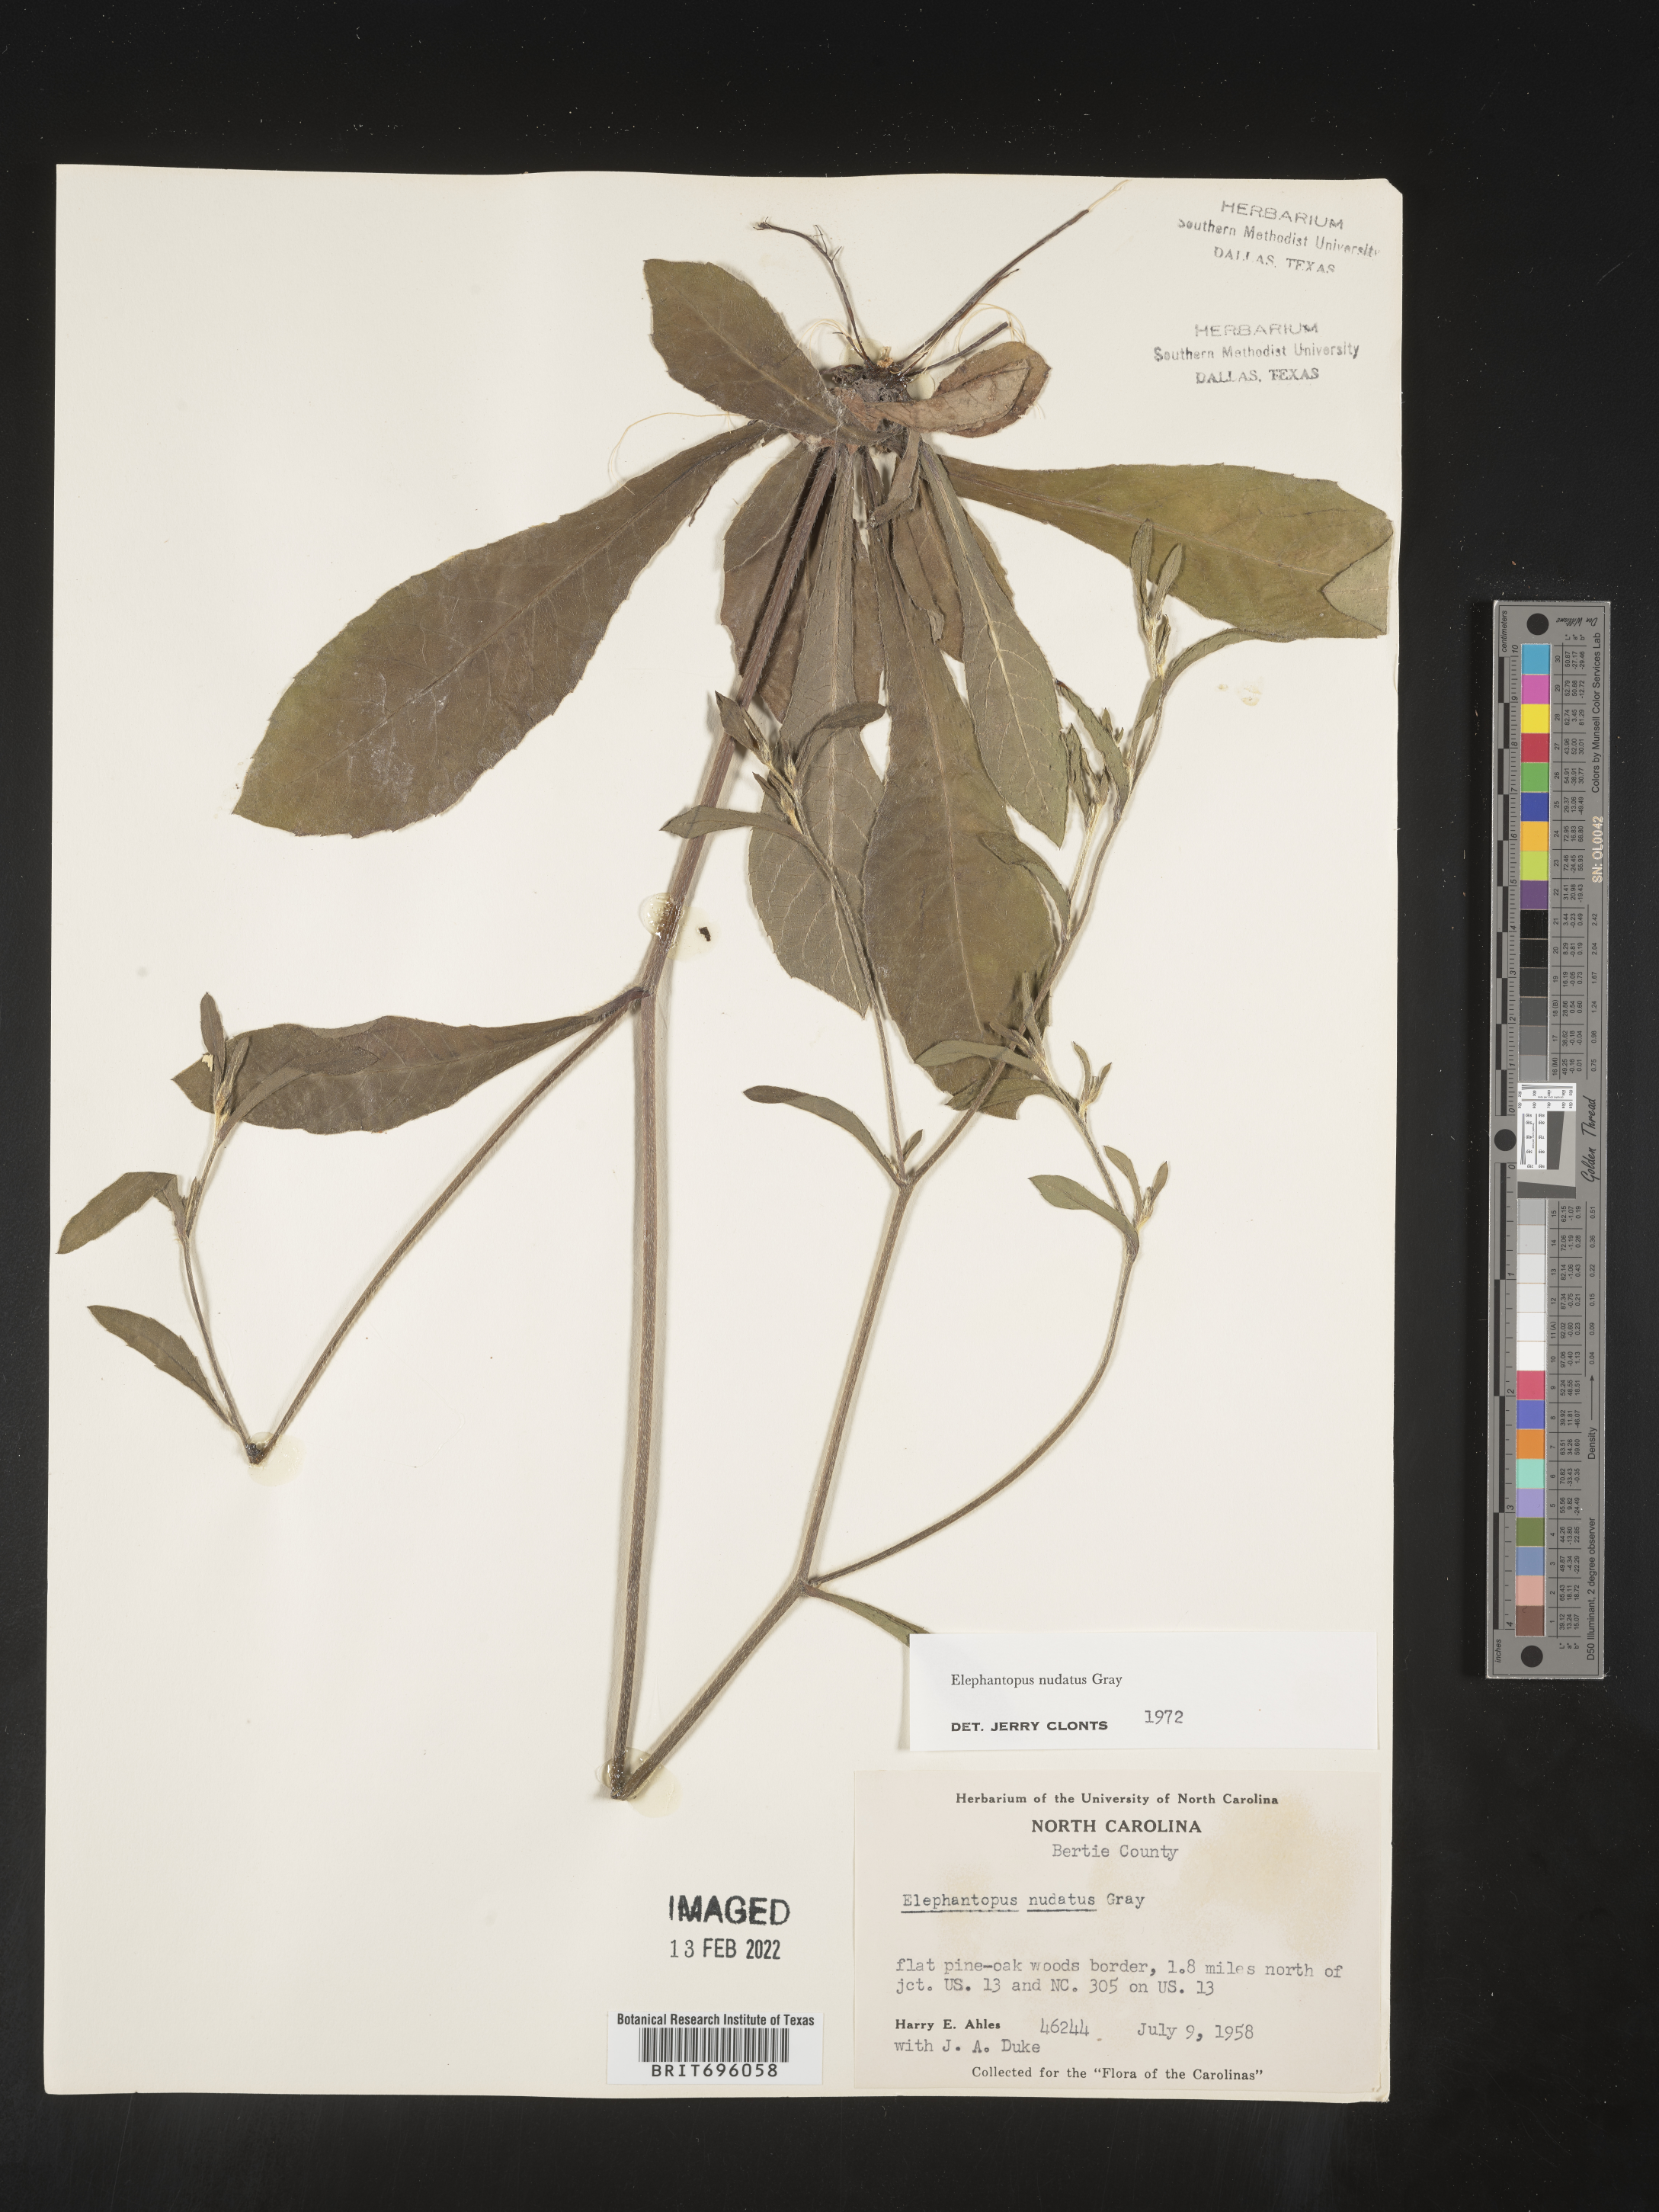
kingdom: Plantae
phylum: Tracheophyta
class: Magnoliopsida
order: Asterales
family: Asteraceae
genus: Elephantopus
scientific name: Elephantopus nudatus
